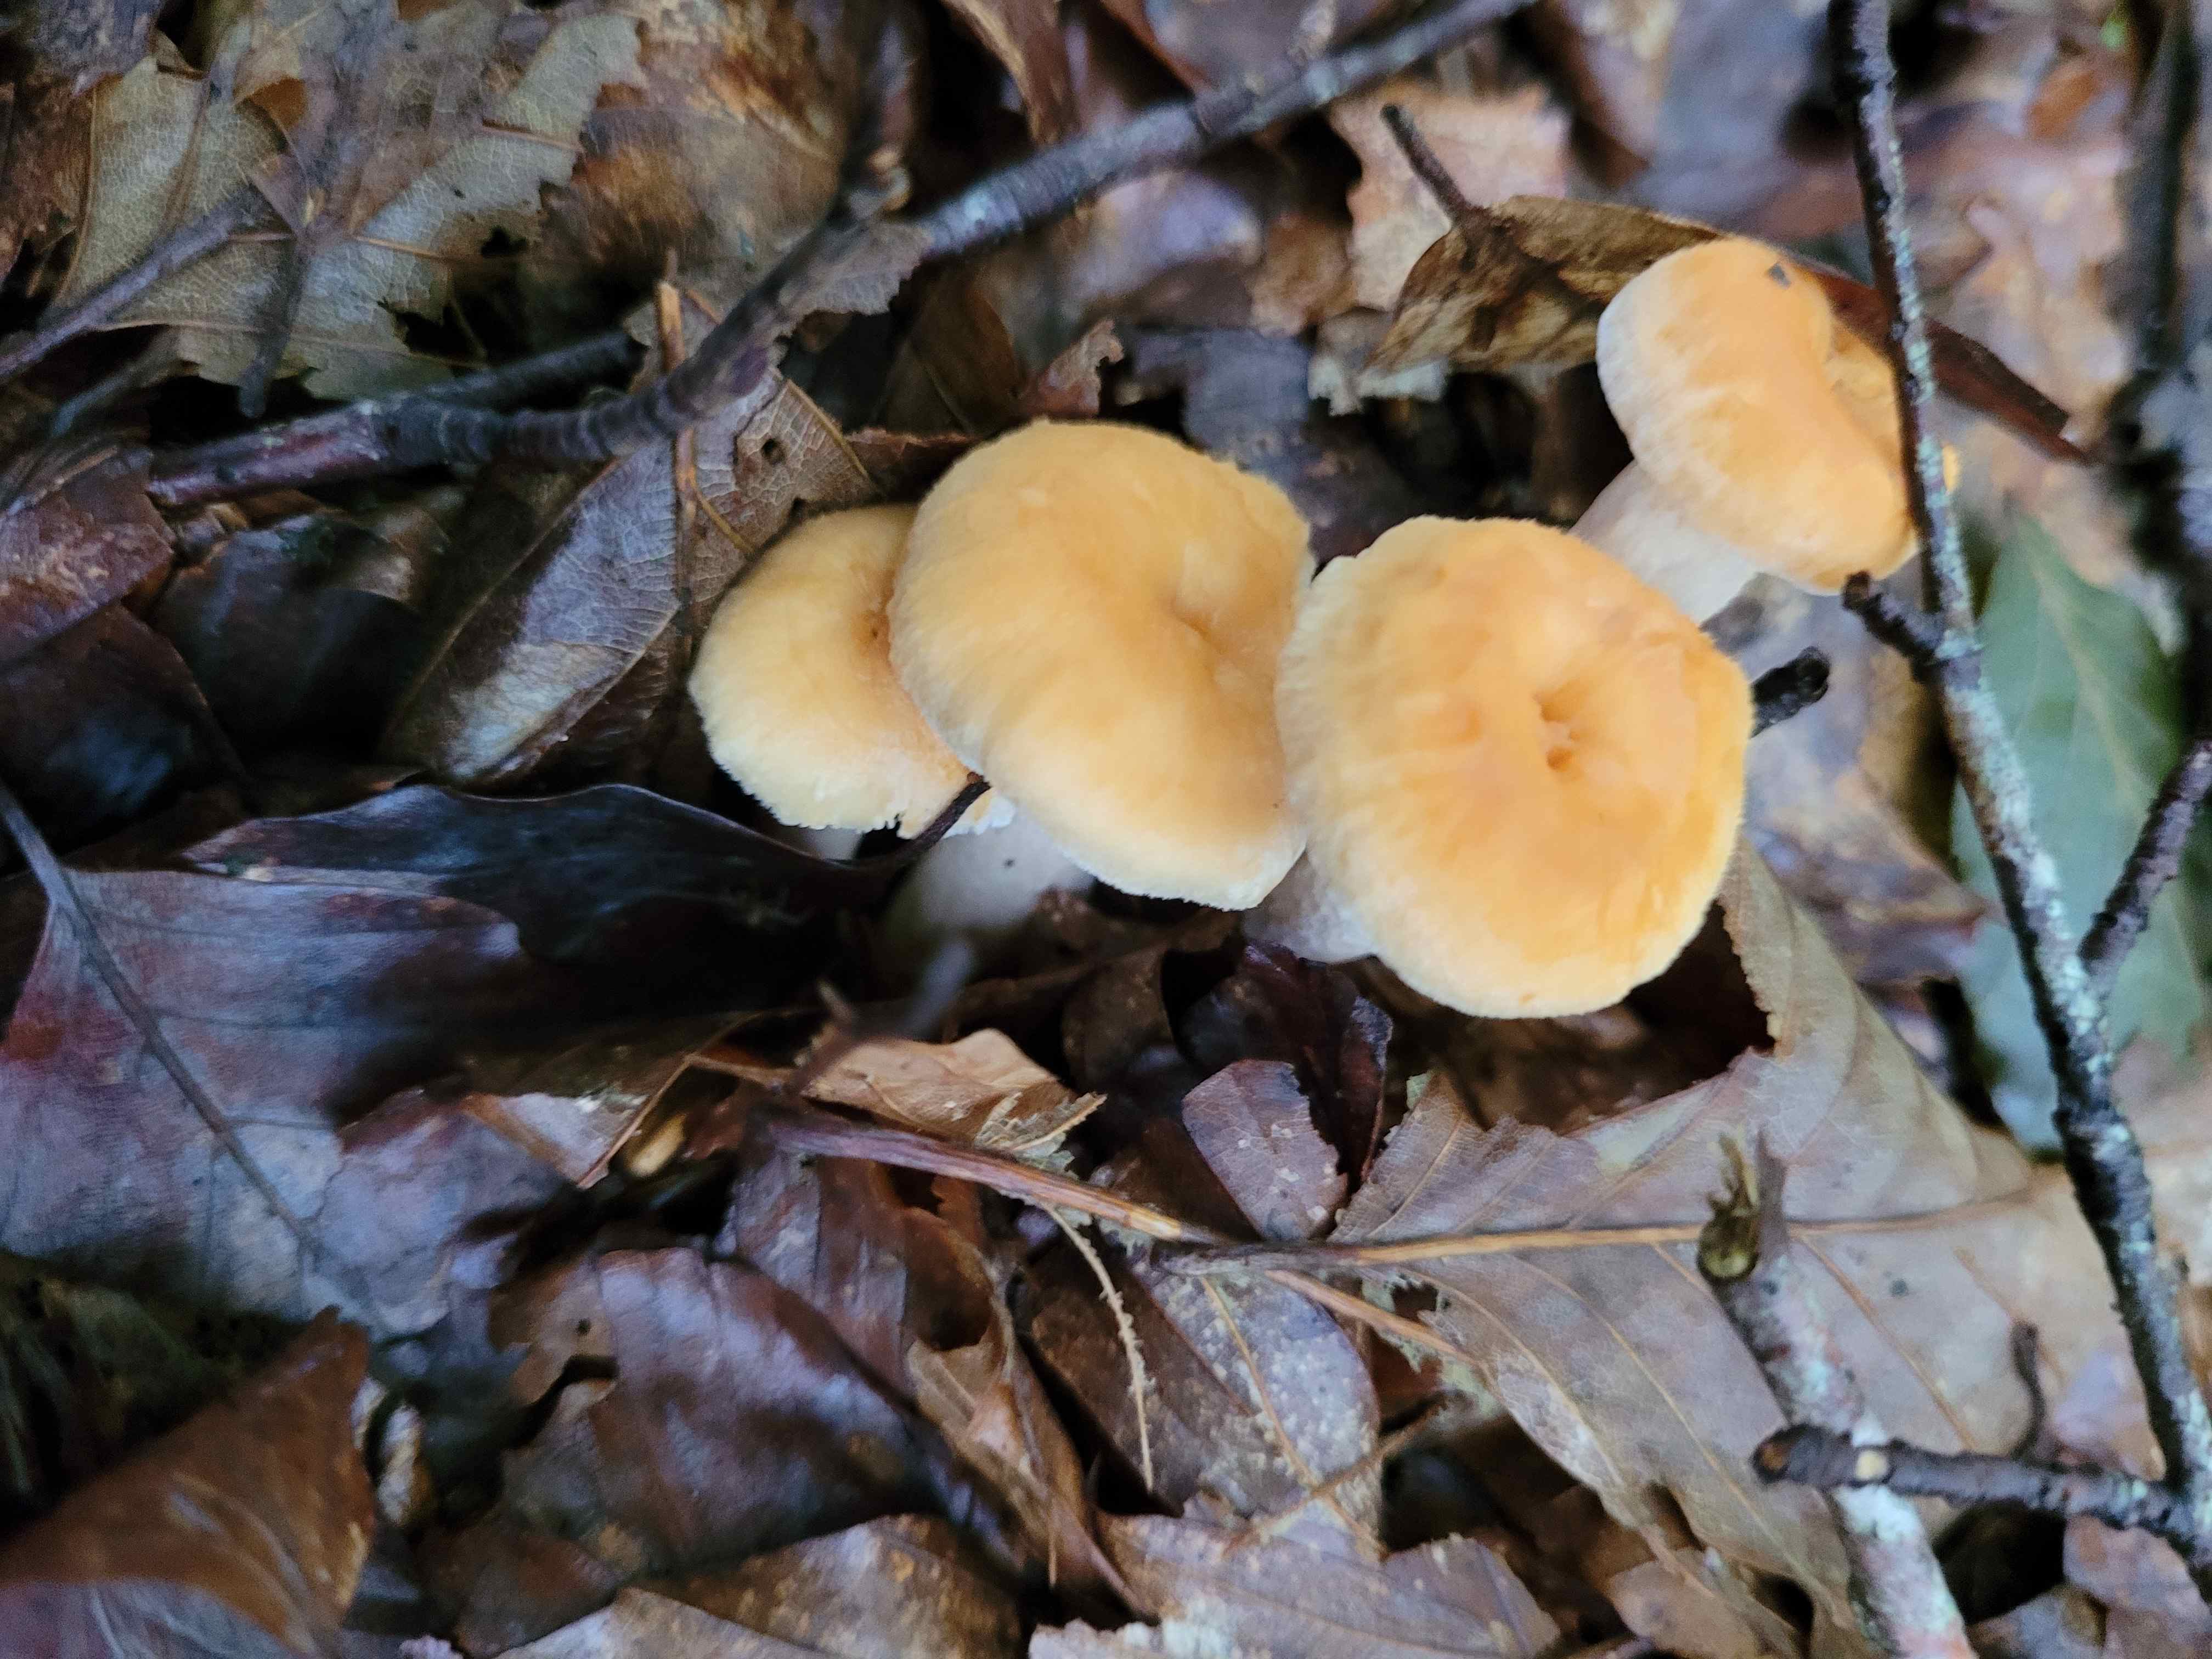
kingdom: Fungi
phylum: Basidiomycota
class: Agaricomycetes
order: Cantharellales
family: Hydnaceae
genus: Hydnum
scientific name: Hydnum umbilicatum
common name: navle-pigsvamp
